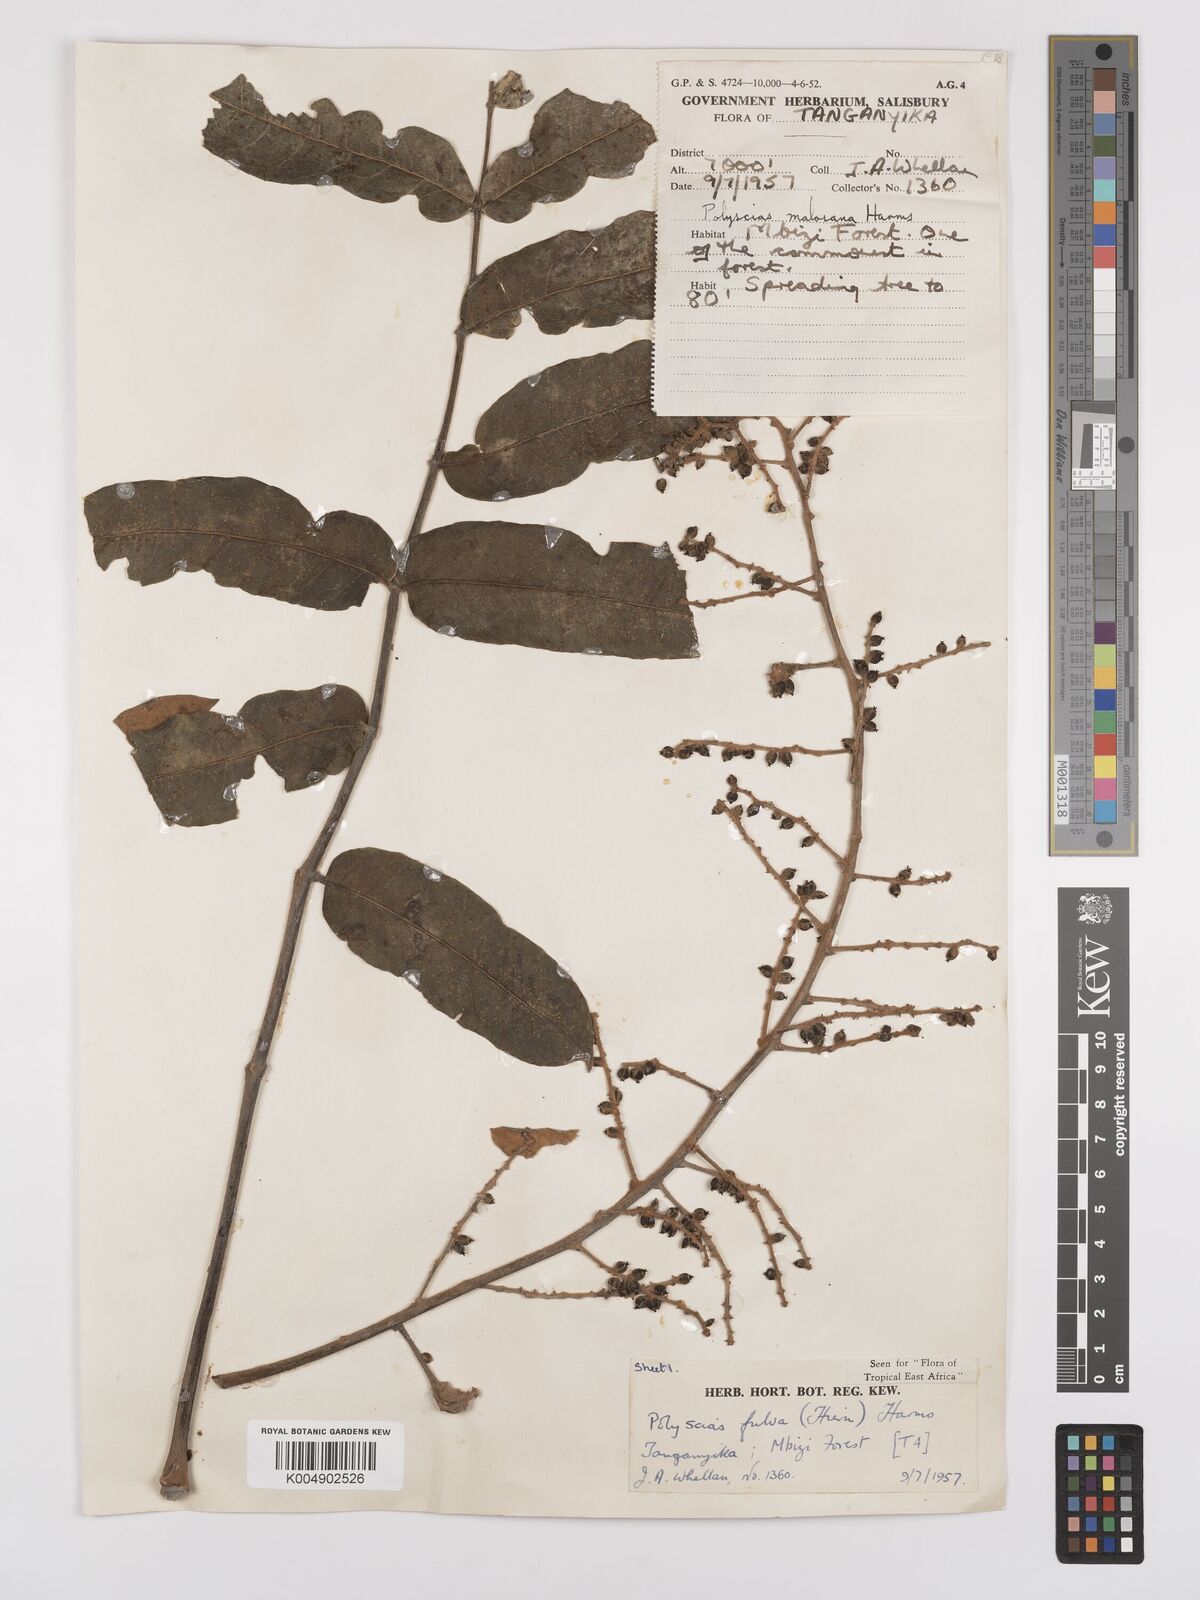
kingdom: Plantae
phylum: Tracheophyta
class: Magnoliopsida
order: Apiales
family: Araliaceae
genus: Polyscias
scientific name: Polyscias fulva
